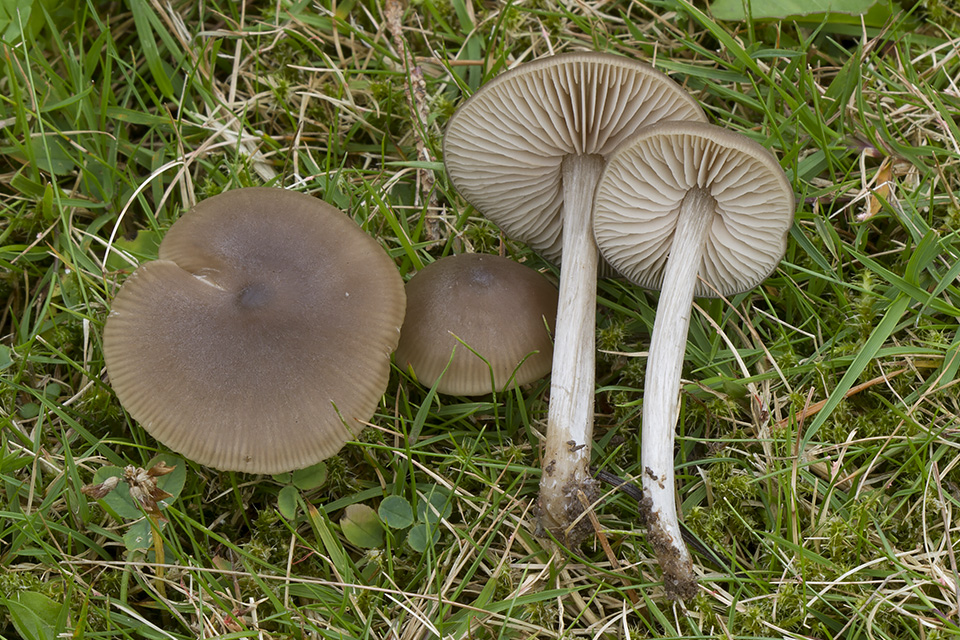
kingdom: Fungi
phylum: Basidiomycota
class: Agaricomycetes
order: Agaricales
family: Entolomataceae
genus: Entoloma
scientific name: Entoloma sericeum
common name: silkeglinsende rødblad
